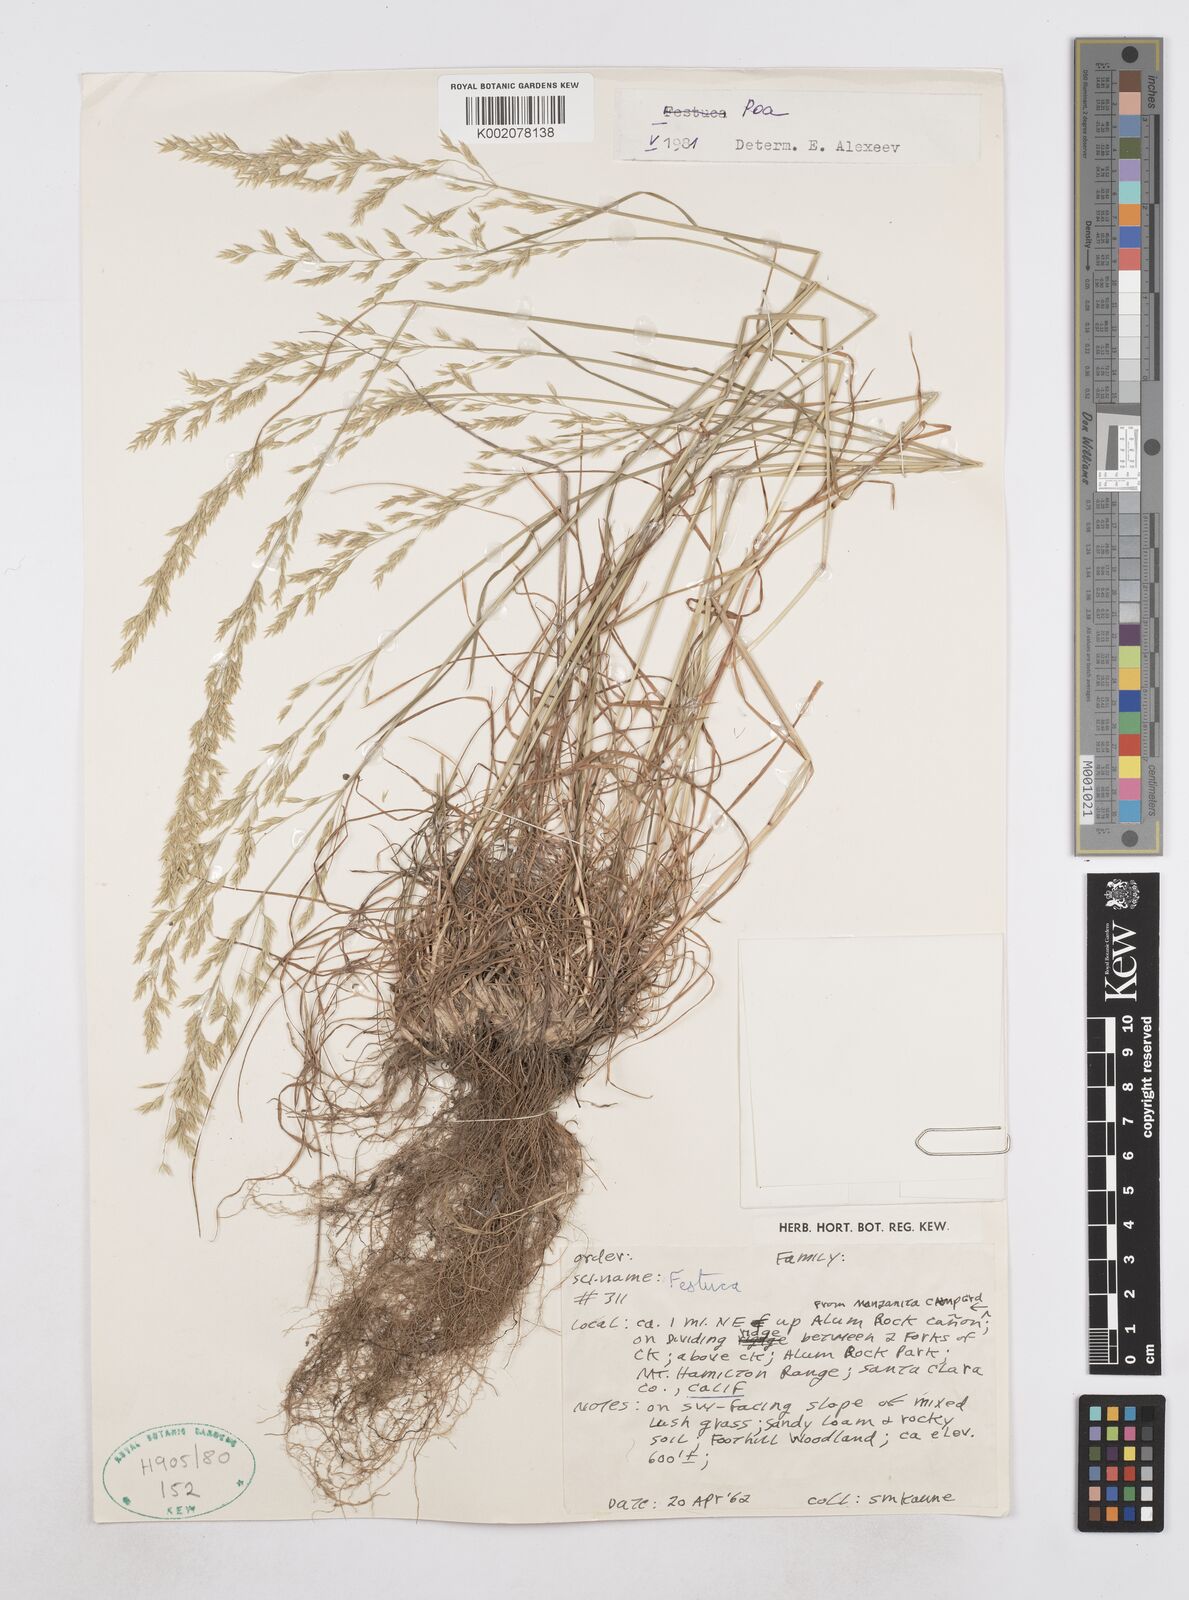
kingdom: Plantae
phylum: Tracheophyta
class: Liliopsida
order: Poales
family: Poaceae
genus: Poa
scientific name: Poa
